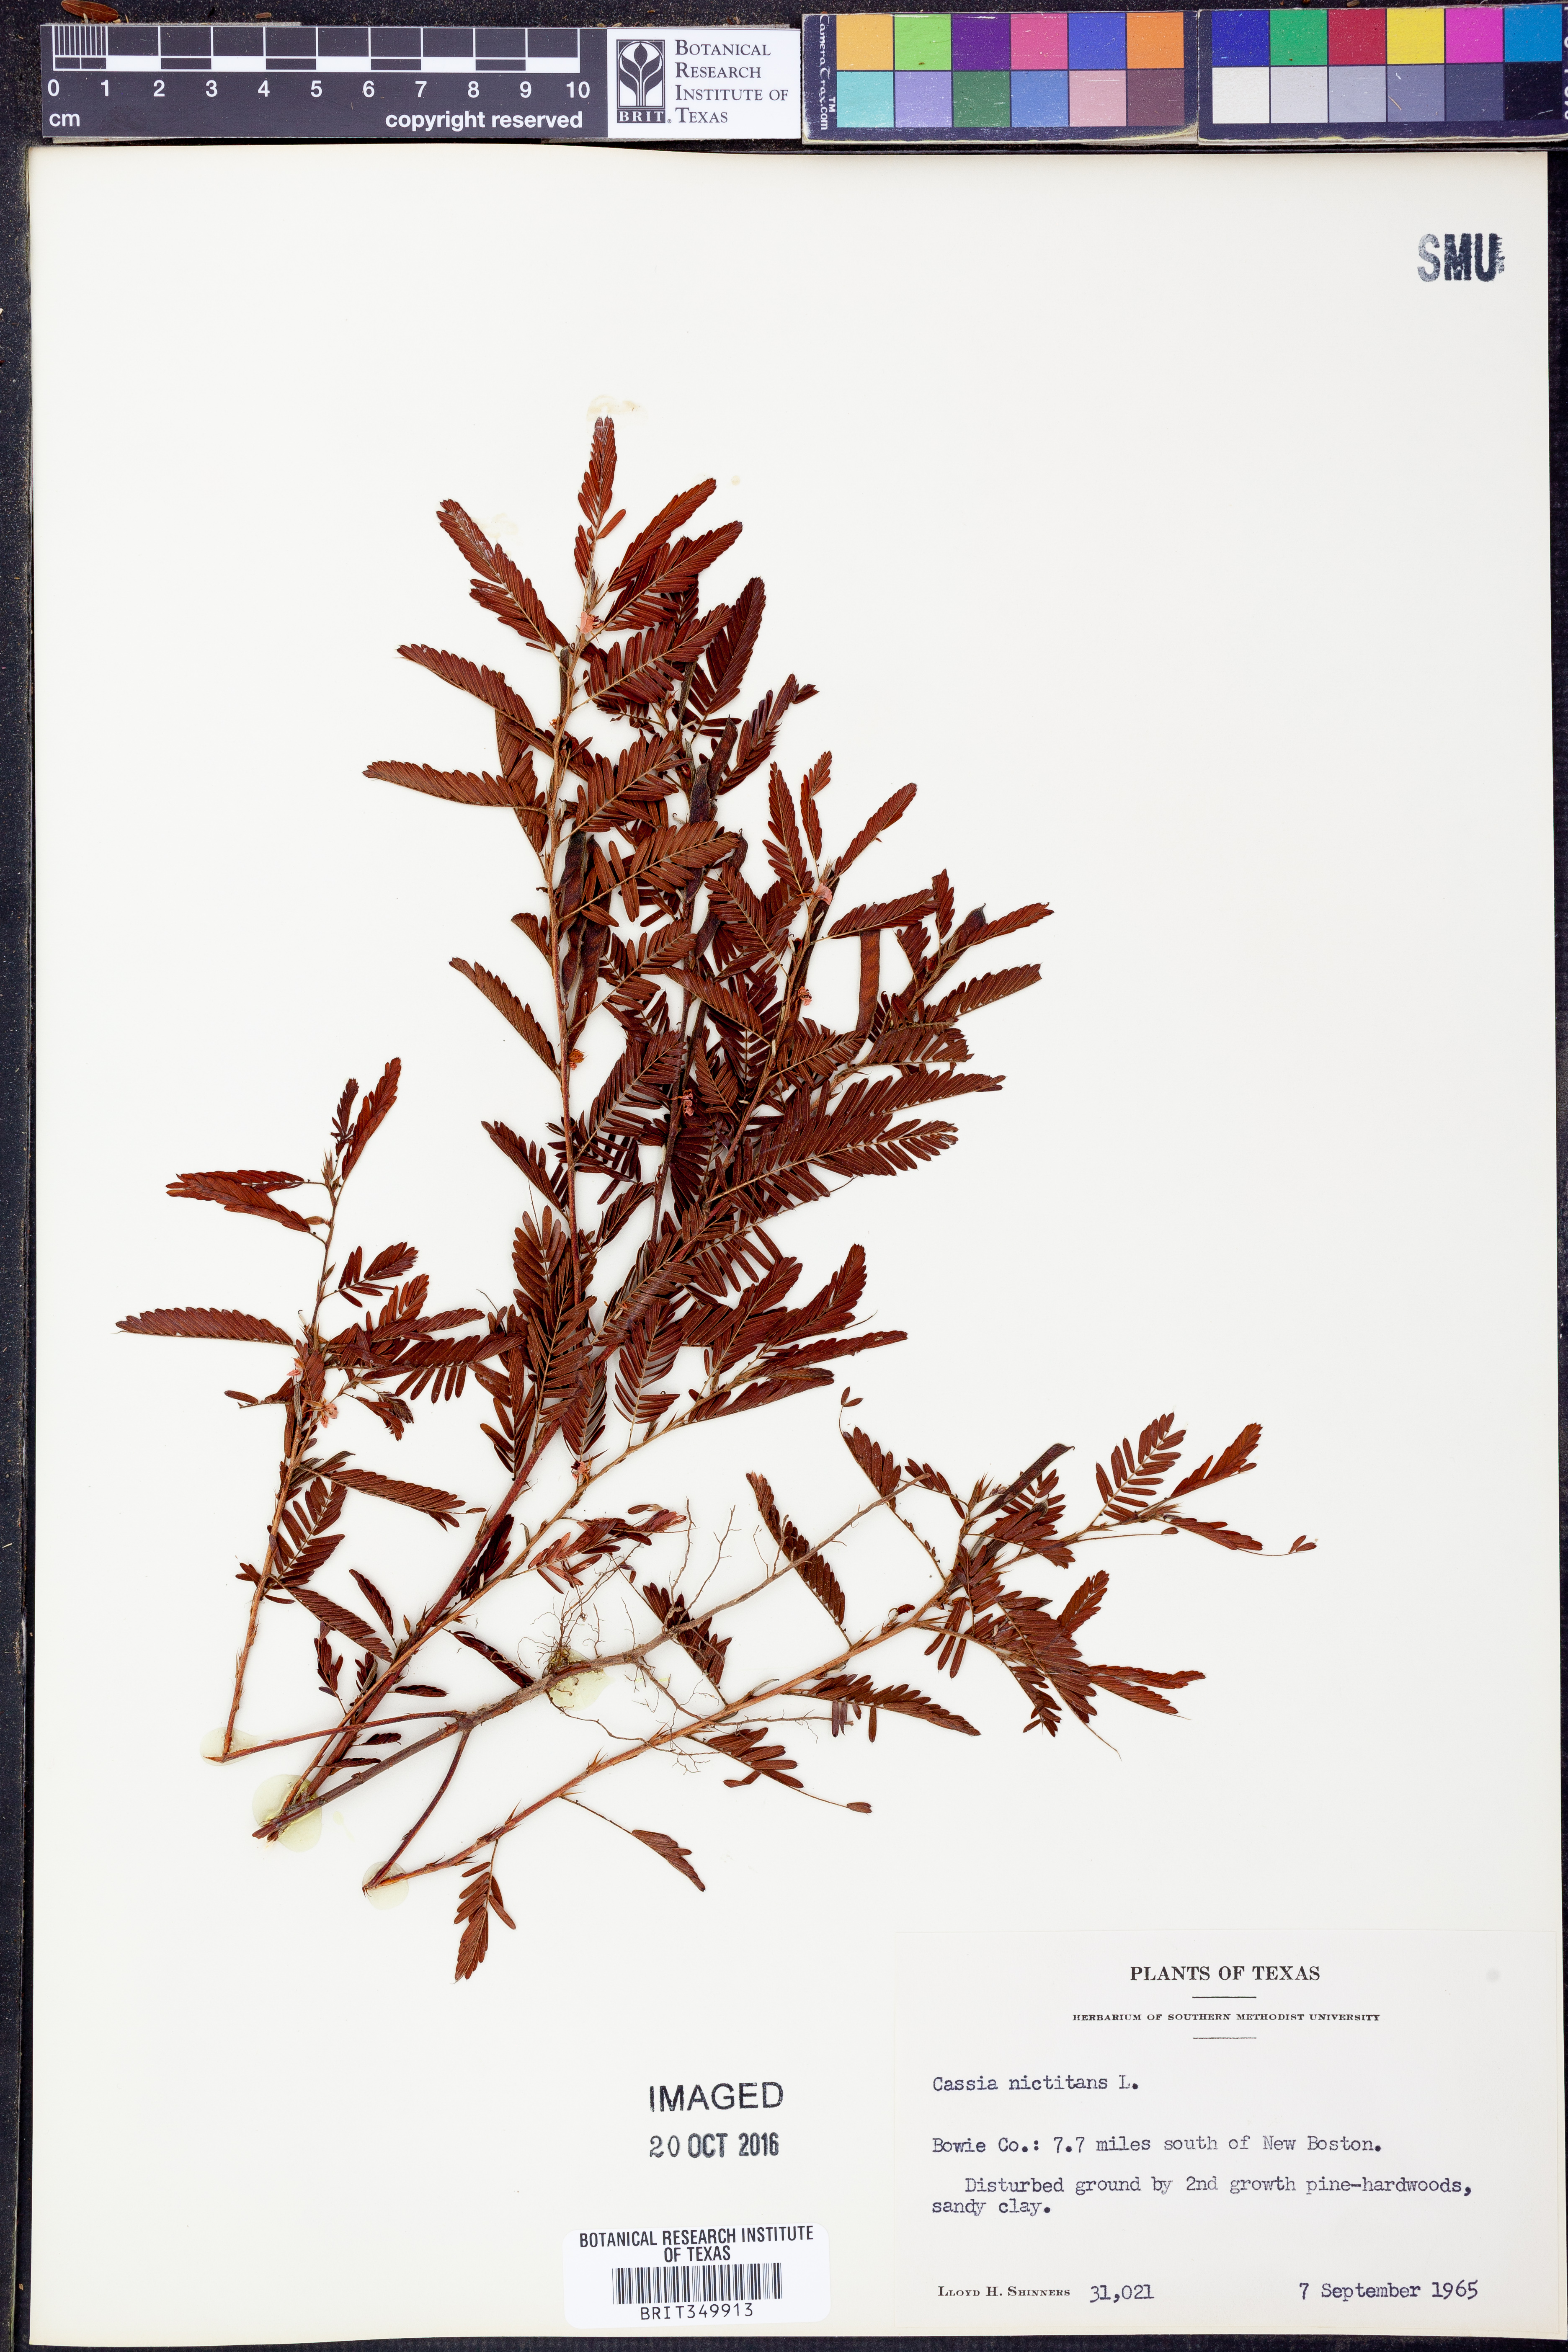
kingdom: Plantae
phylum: Tracheophyta
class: Magnoliopsida
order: Fabales
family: Fabaceae
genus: Chamaecrista
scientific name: Chamaecrista nictitans
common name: Sensitive cassia
